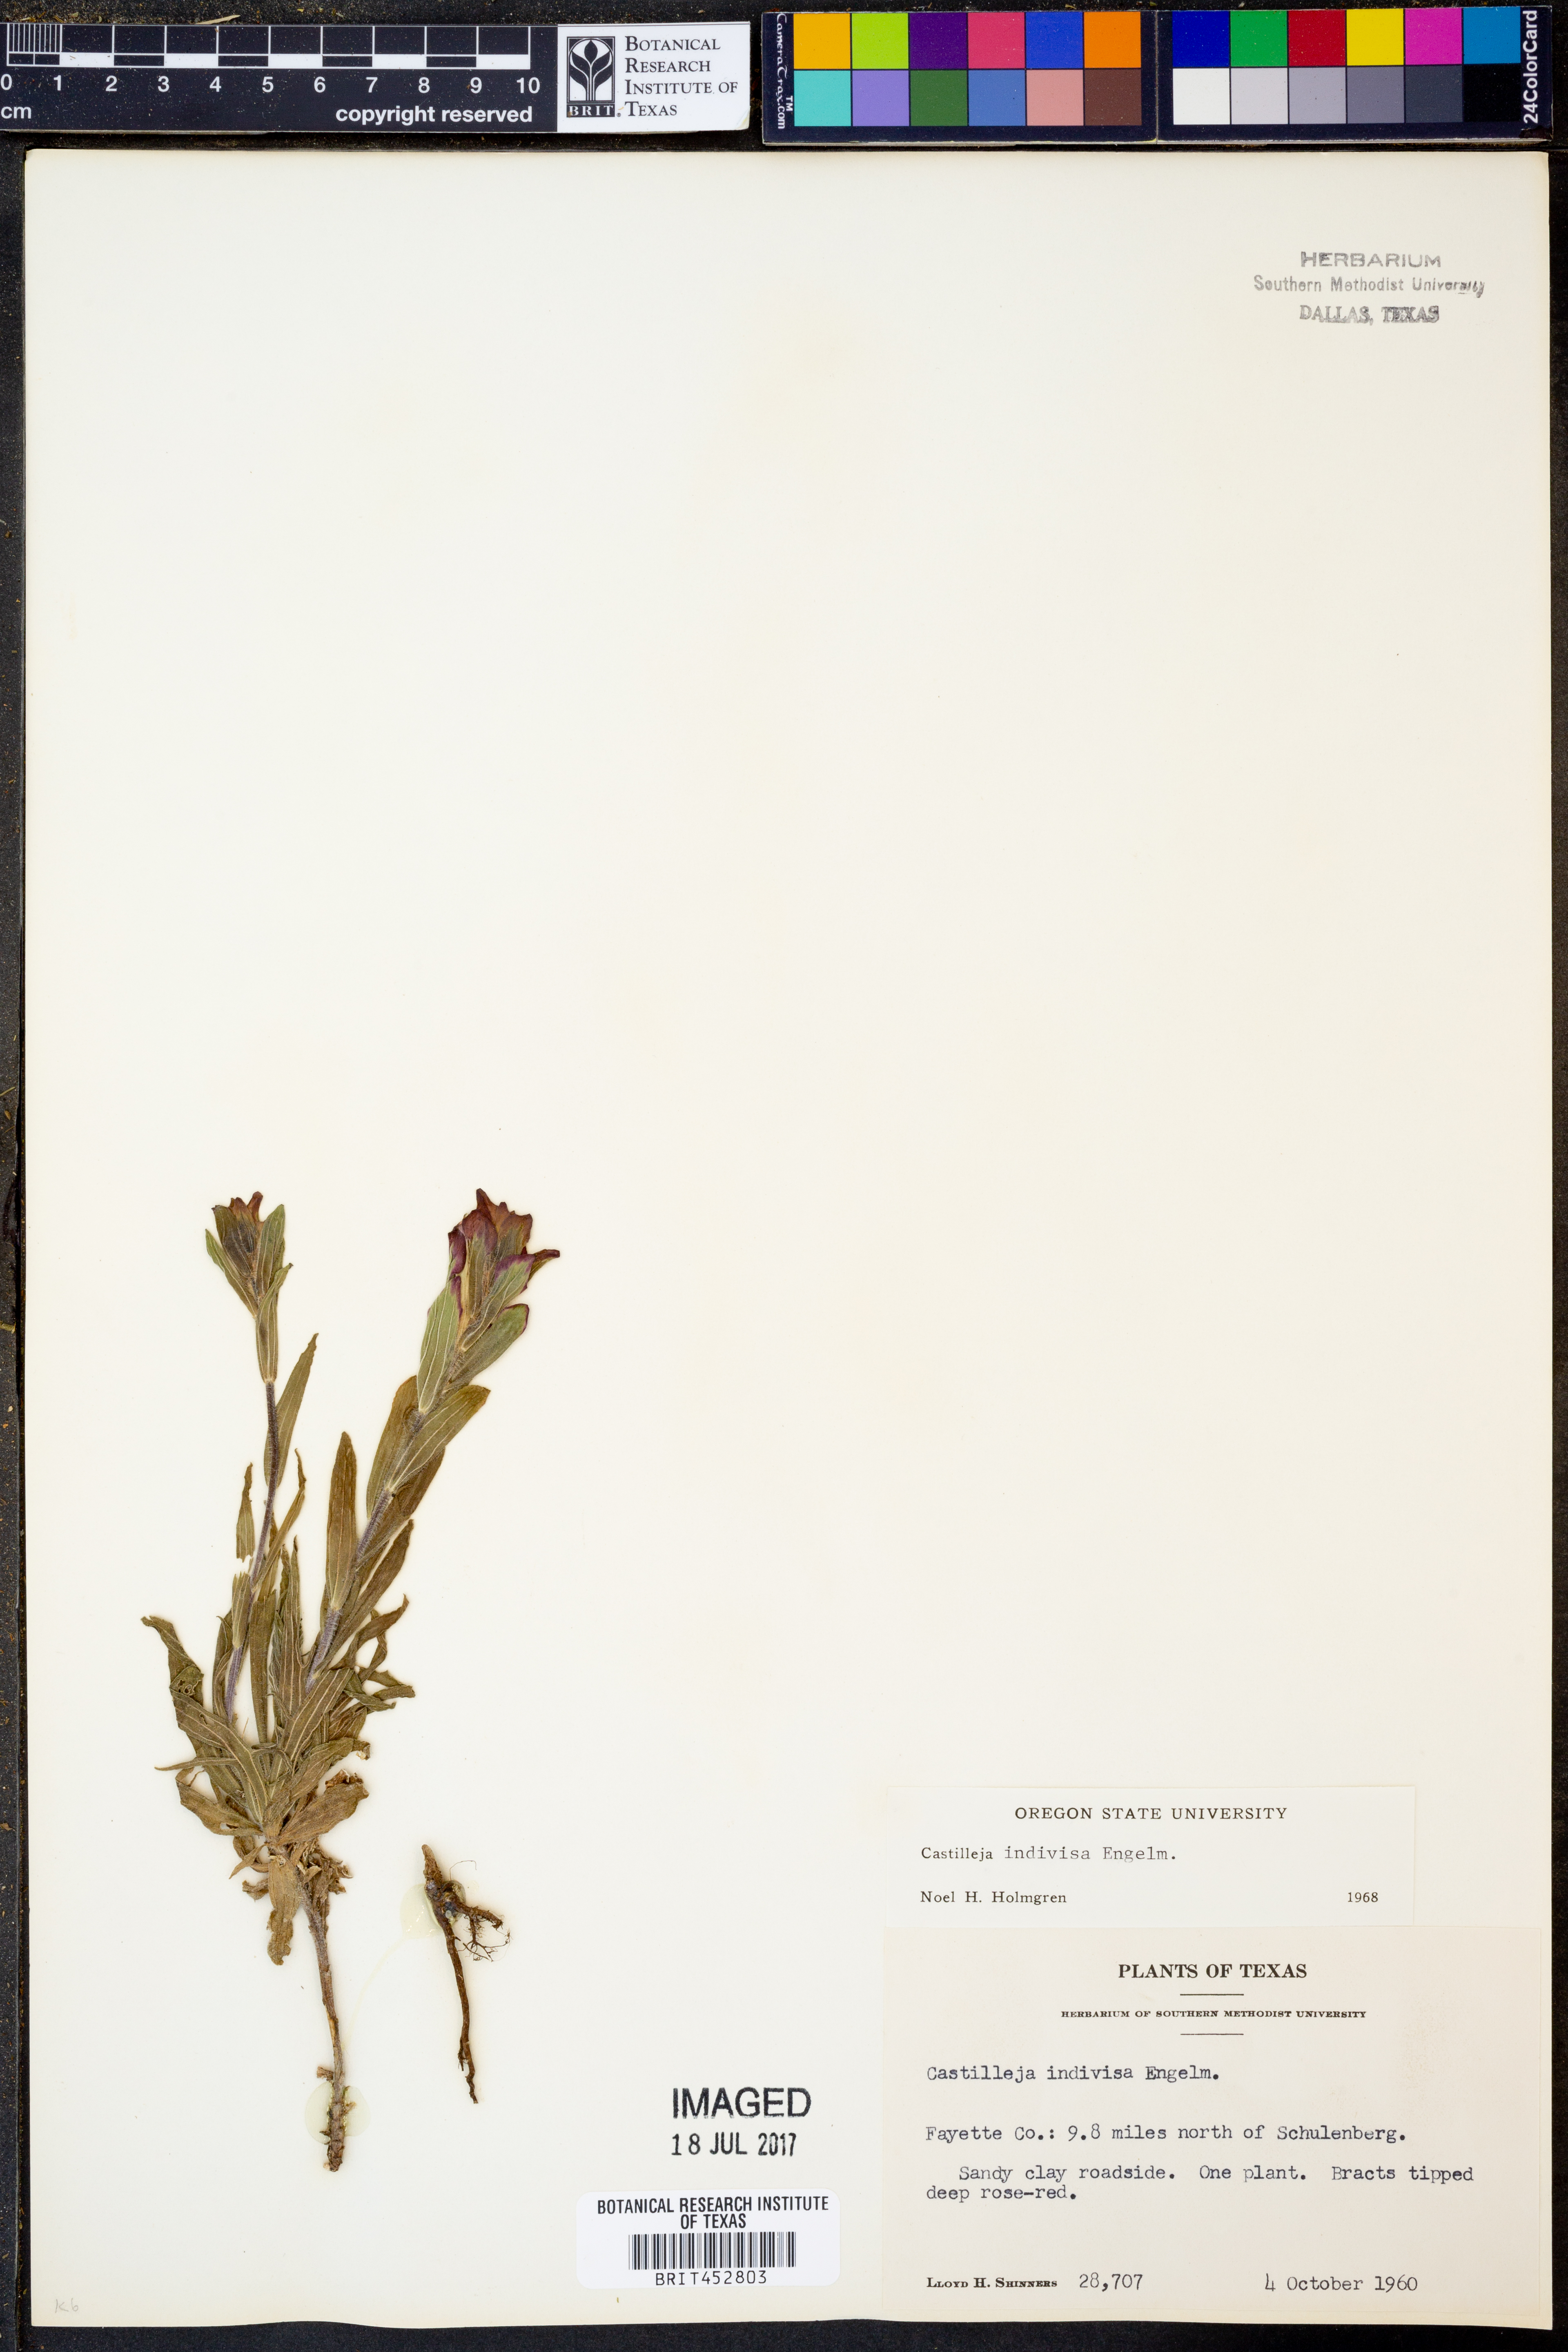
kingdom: Plantae
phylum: Tracheophyta
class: Magnoliopsida
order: Lamiales
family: Orobanchaceae
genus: Castilleja
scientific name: Castilleja indivisa
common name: Texas paintbrush
